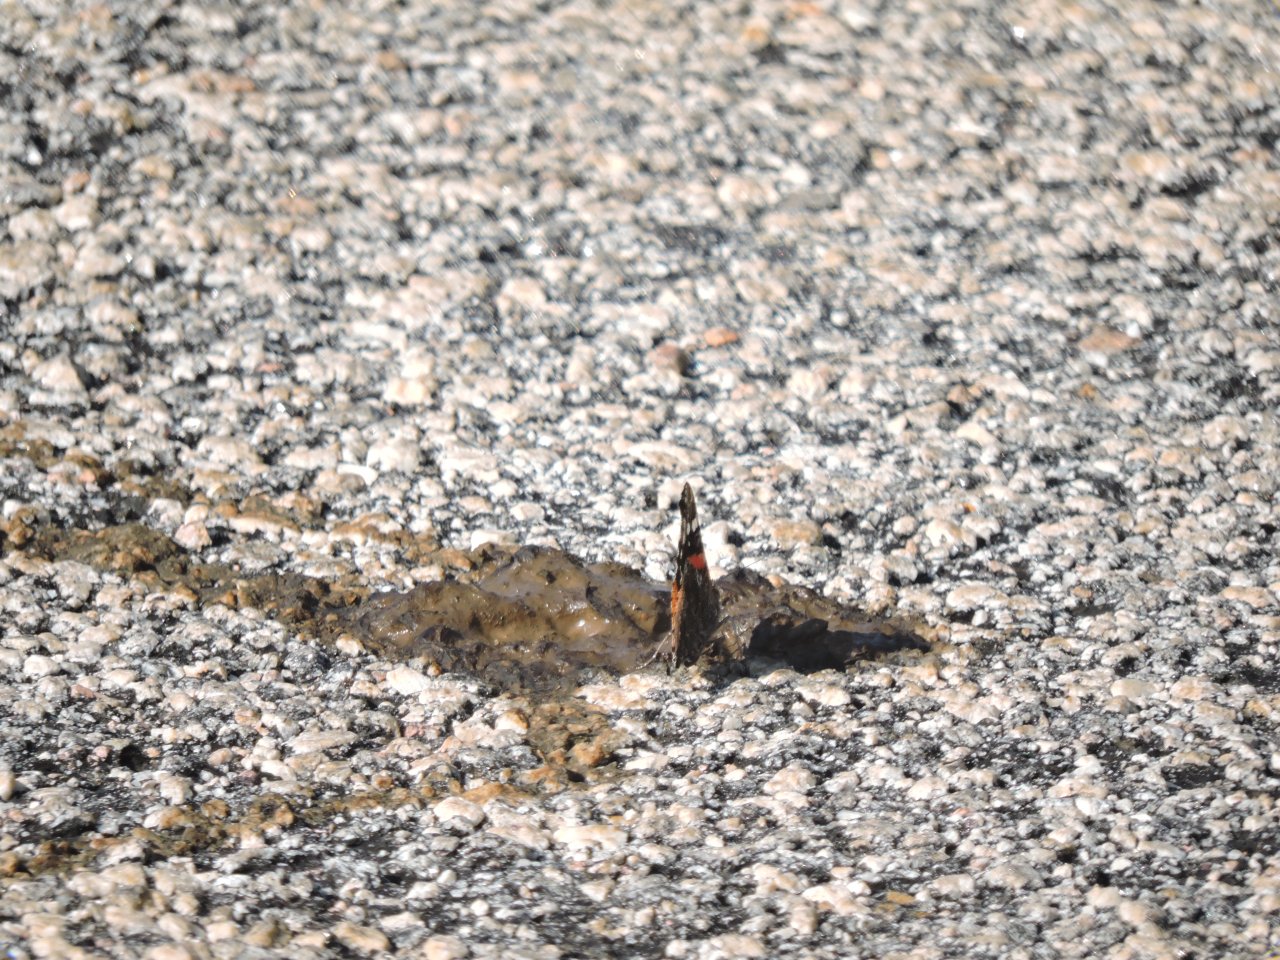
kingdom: Animalia
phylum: Arthropoda
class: Insecta
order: Lepidoptera
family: Nymphalidae
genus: Vanessa
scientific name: Vanessa atalanta
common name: Red Admiral
